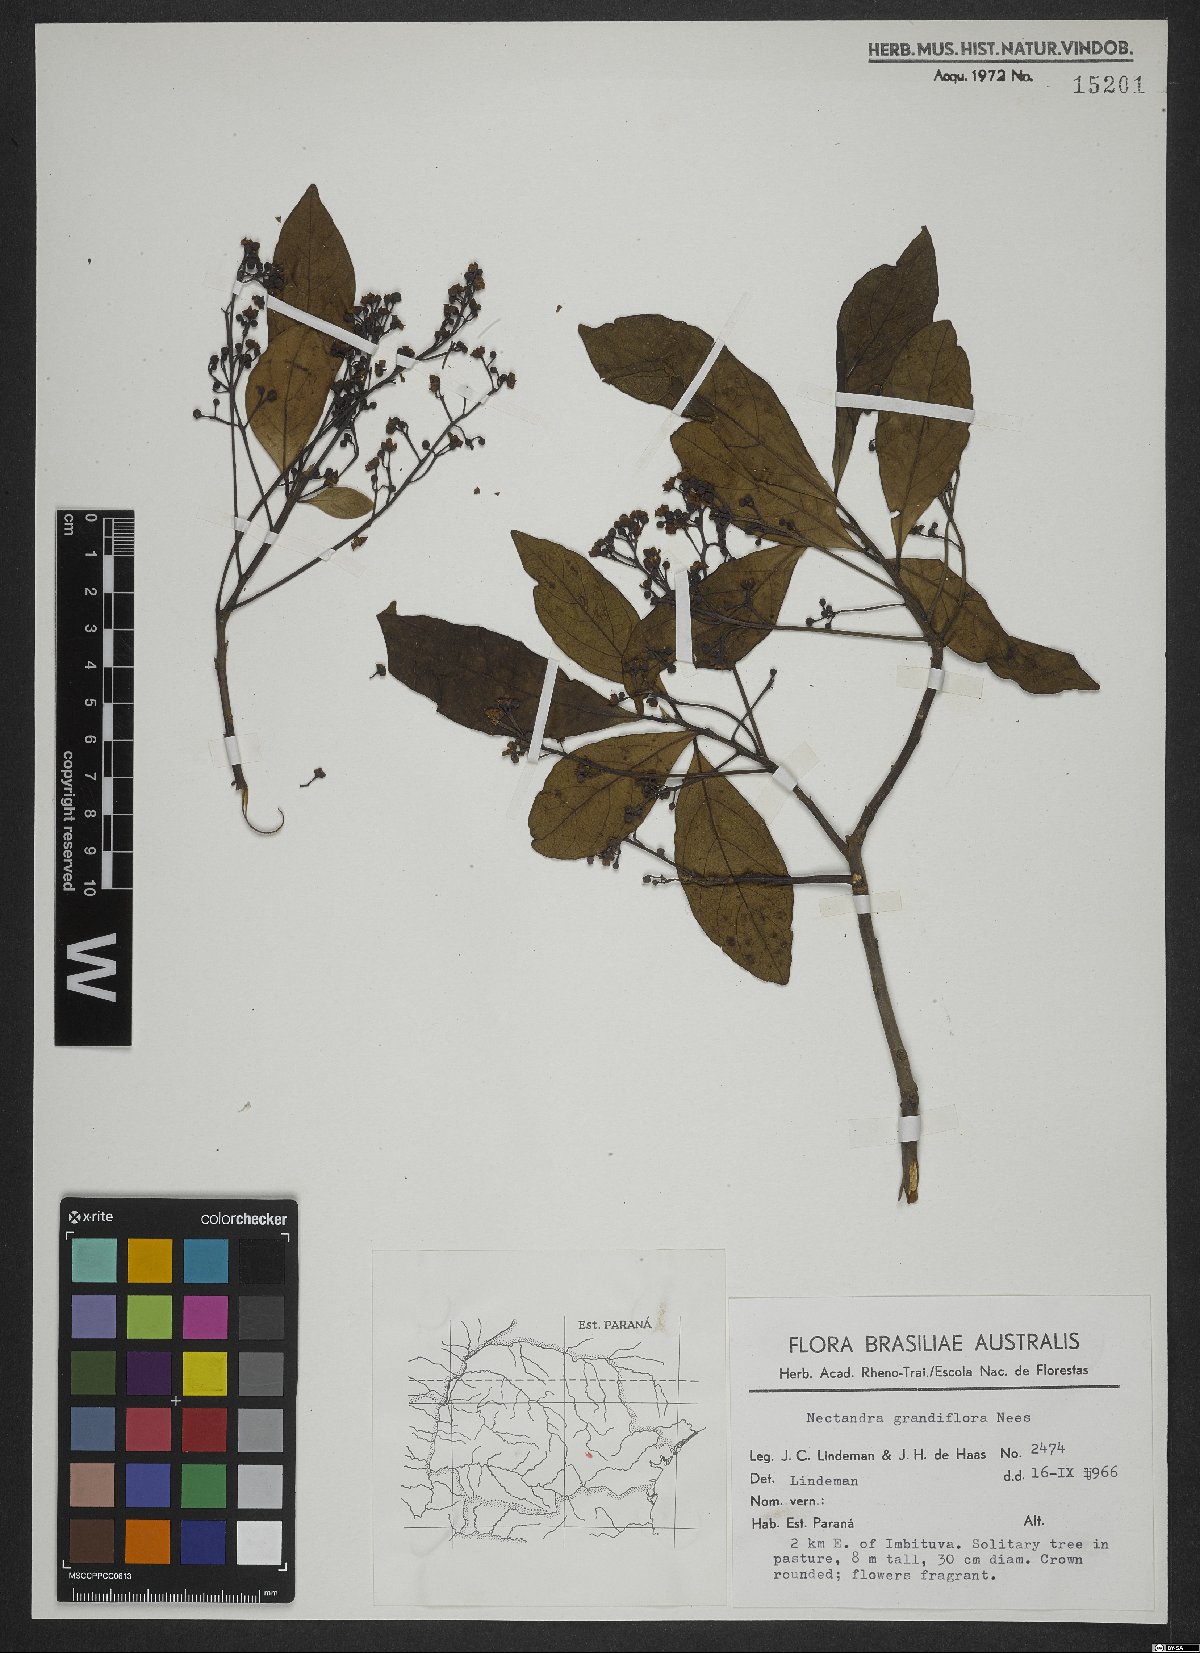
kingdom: Plantae
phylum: Tracheophyta
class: Magnoliopsida
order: Laurales
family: Lauraceae
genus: Nectandra
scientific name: Nectandra grandiflora
